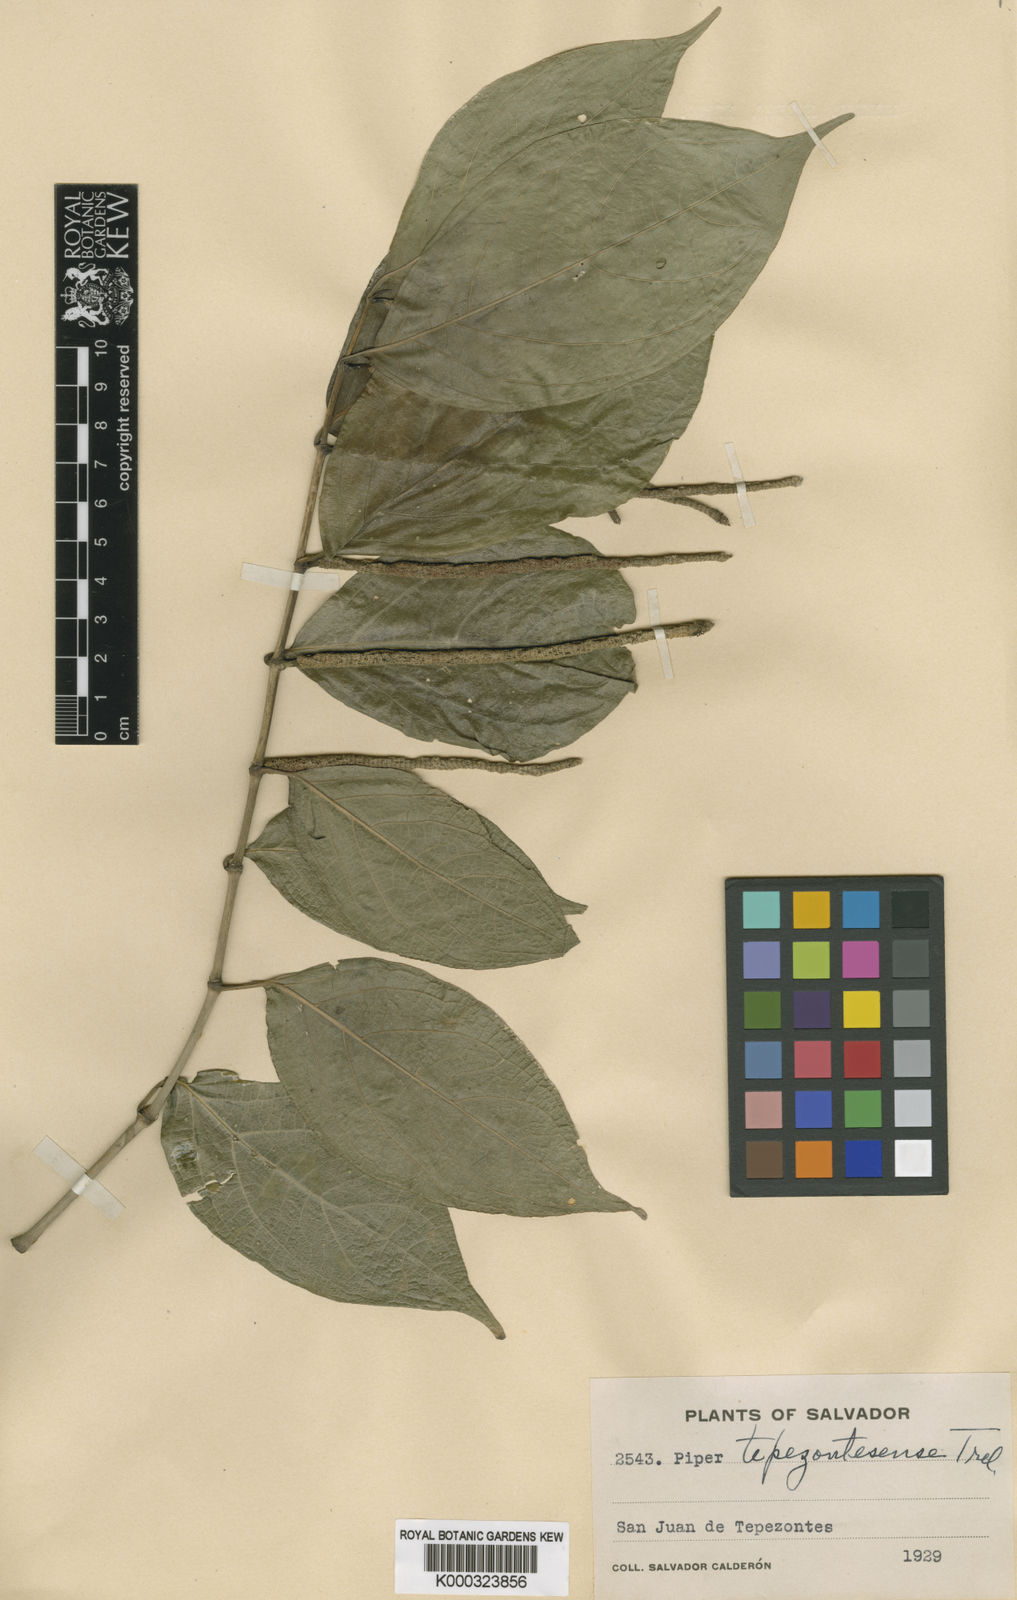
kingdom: Plantae
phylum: Tracheophyta
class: Magnoliopsida
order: Piperales
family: Piperaceae
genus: Piper
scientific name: Piper
